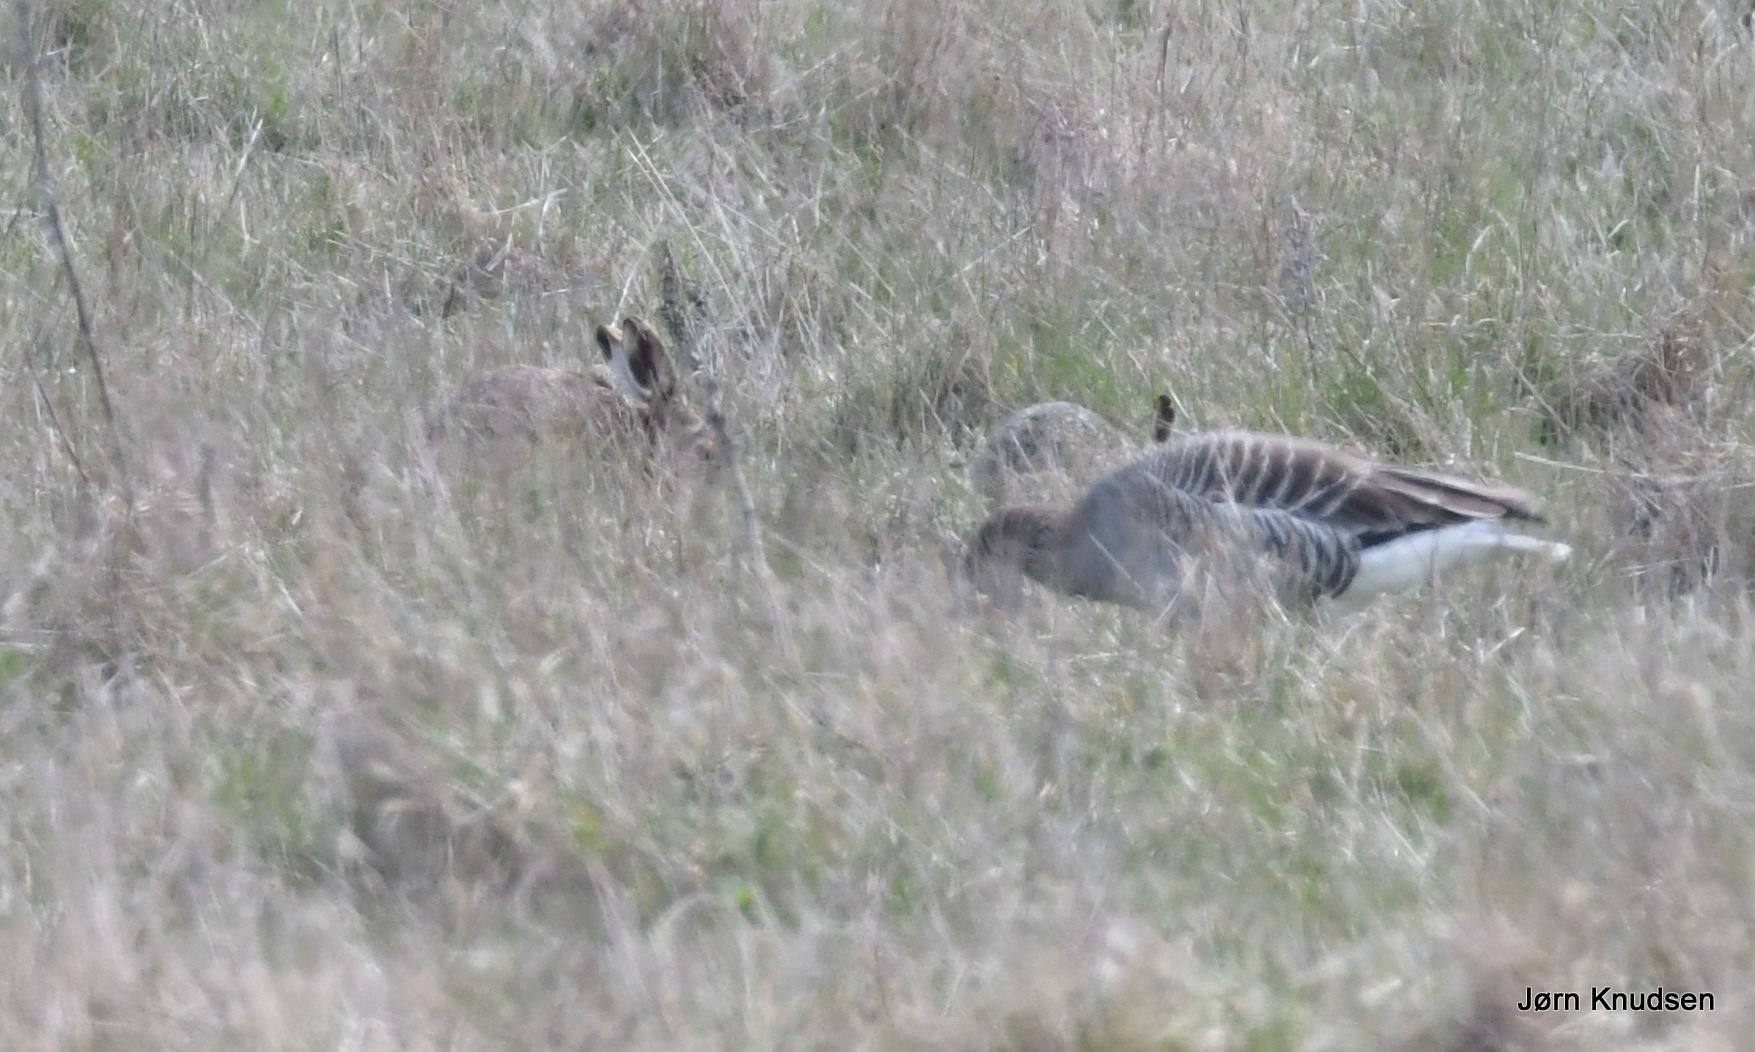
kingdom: Animalia
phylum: Chordata
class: Mammalia
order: Lagomorpha
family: Leporidae
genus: Lepus
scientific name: Lepus europaeus
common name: Hare
